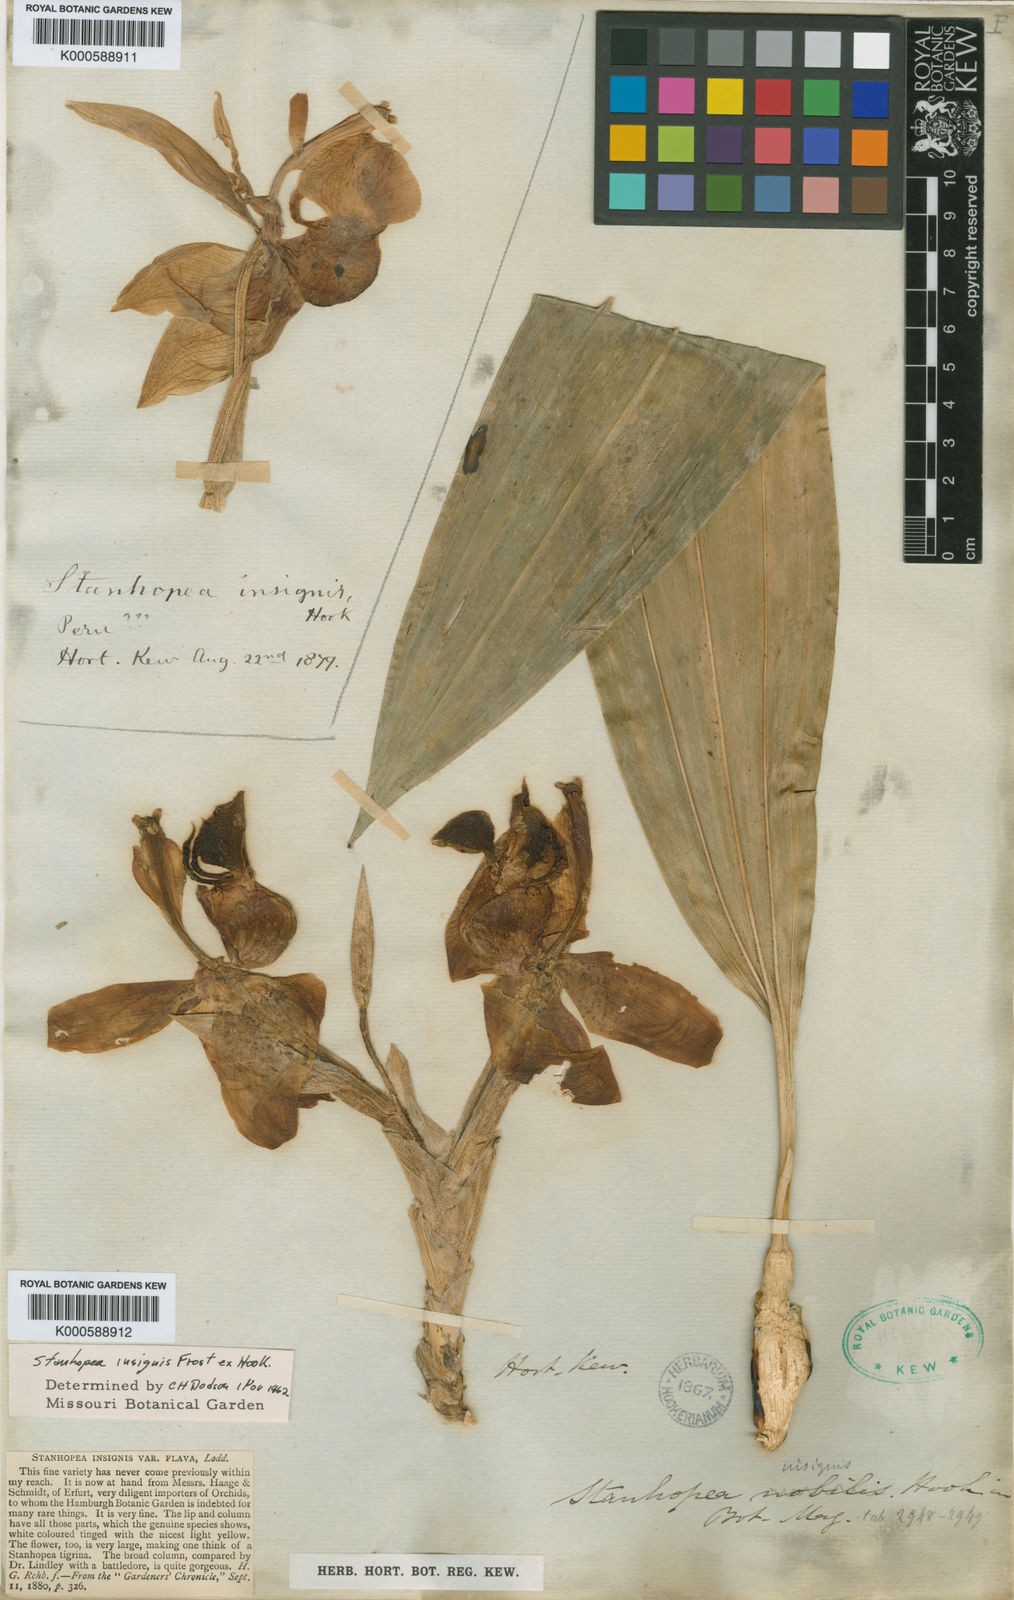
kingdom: Plantae
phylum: Tracheophyta
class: Liliopsida
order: Asparagales
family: Orchidaceae
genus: Stanhopea
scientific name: Stanhopea insignis
